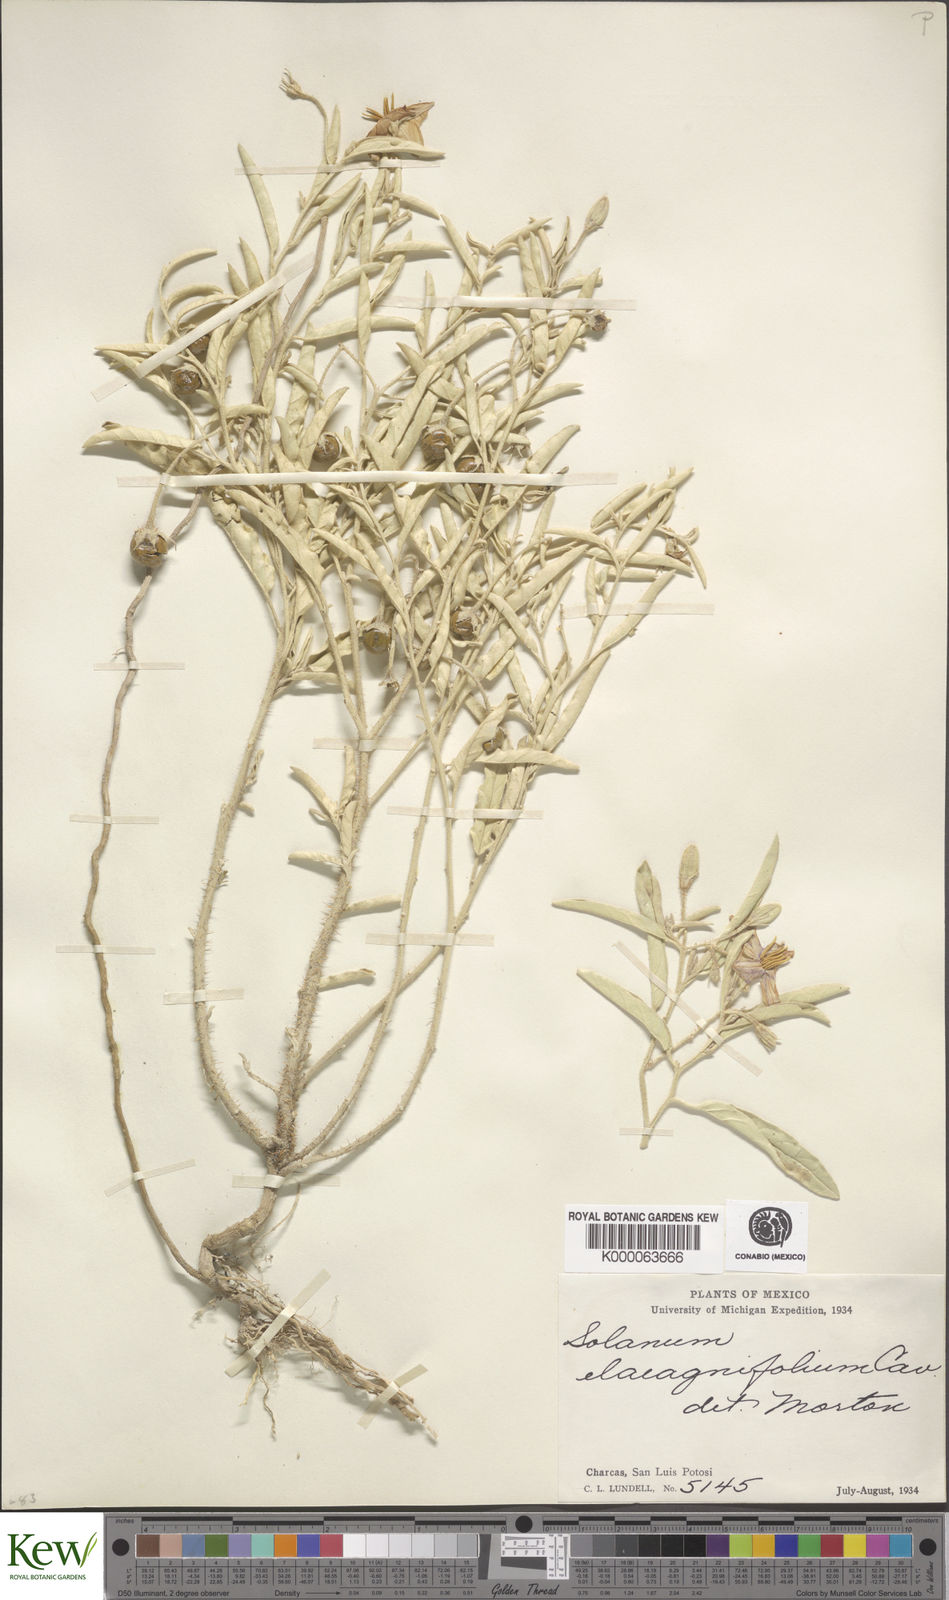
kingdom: Plantae
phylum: Tracheophyta
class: Magnoliopsida
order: Solanales
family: Solanaceae
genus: Solanum
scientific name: Solanum elaeagnifolium
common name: Silverleaf nightshade
